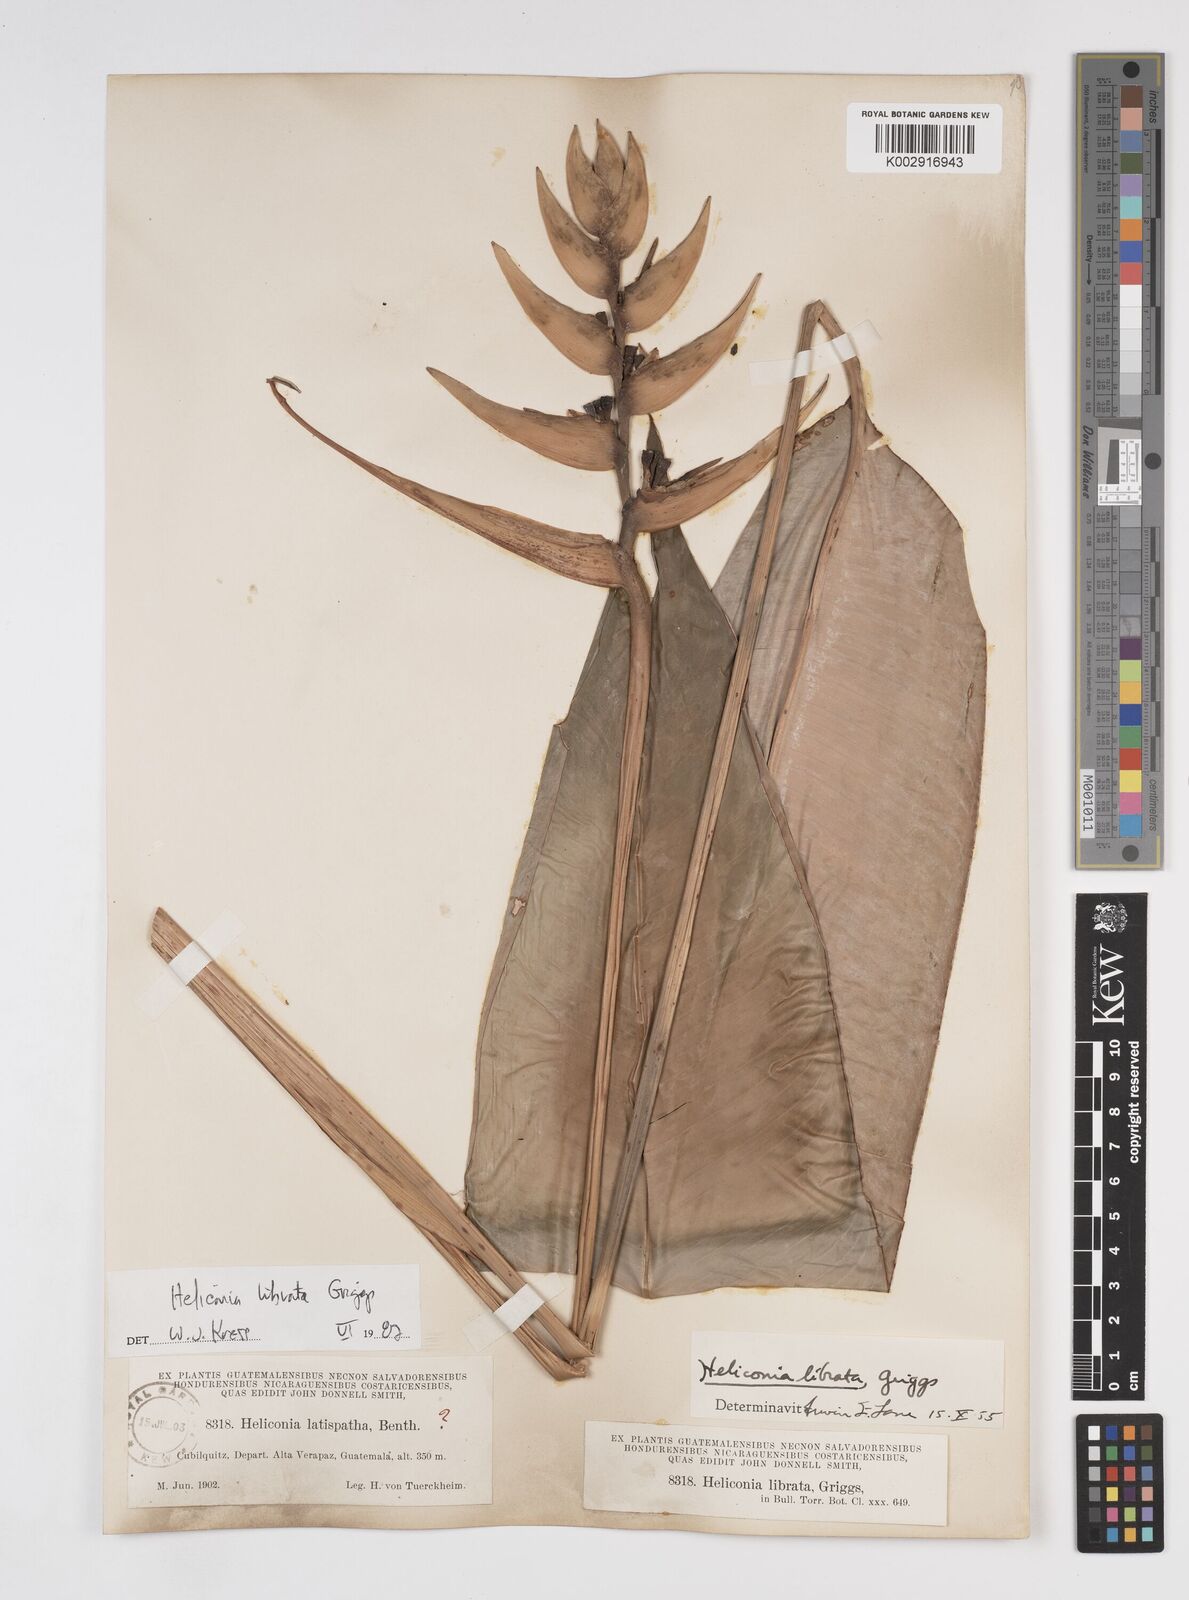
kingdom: Plantae
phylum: Tracheophyta
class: Liliopsida
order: Zingiberales
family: Heliconiaceae
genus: Heliconia
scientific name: Heliconia librata
